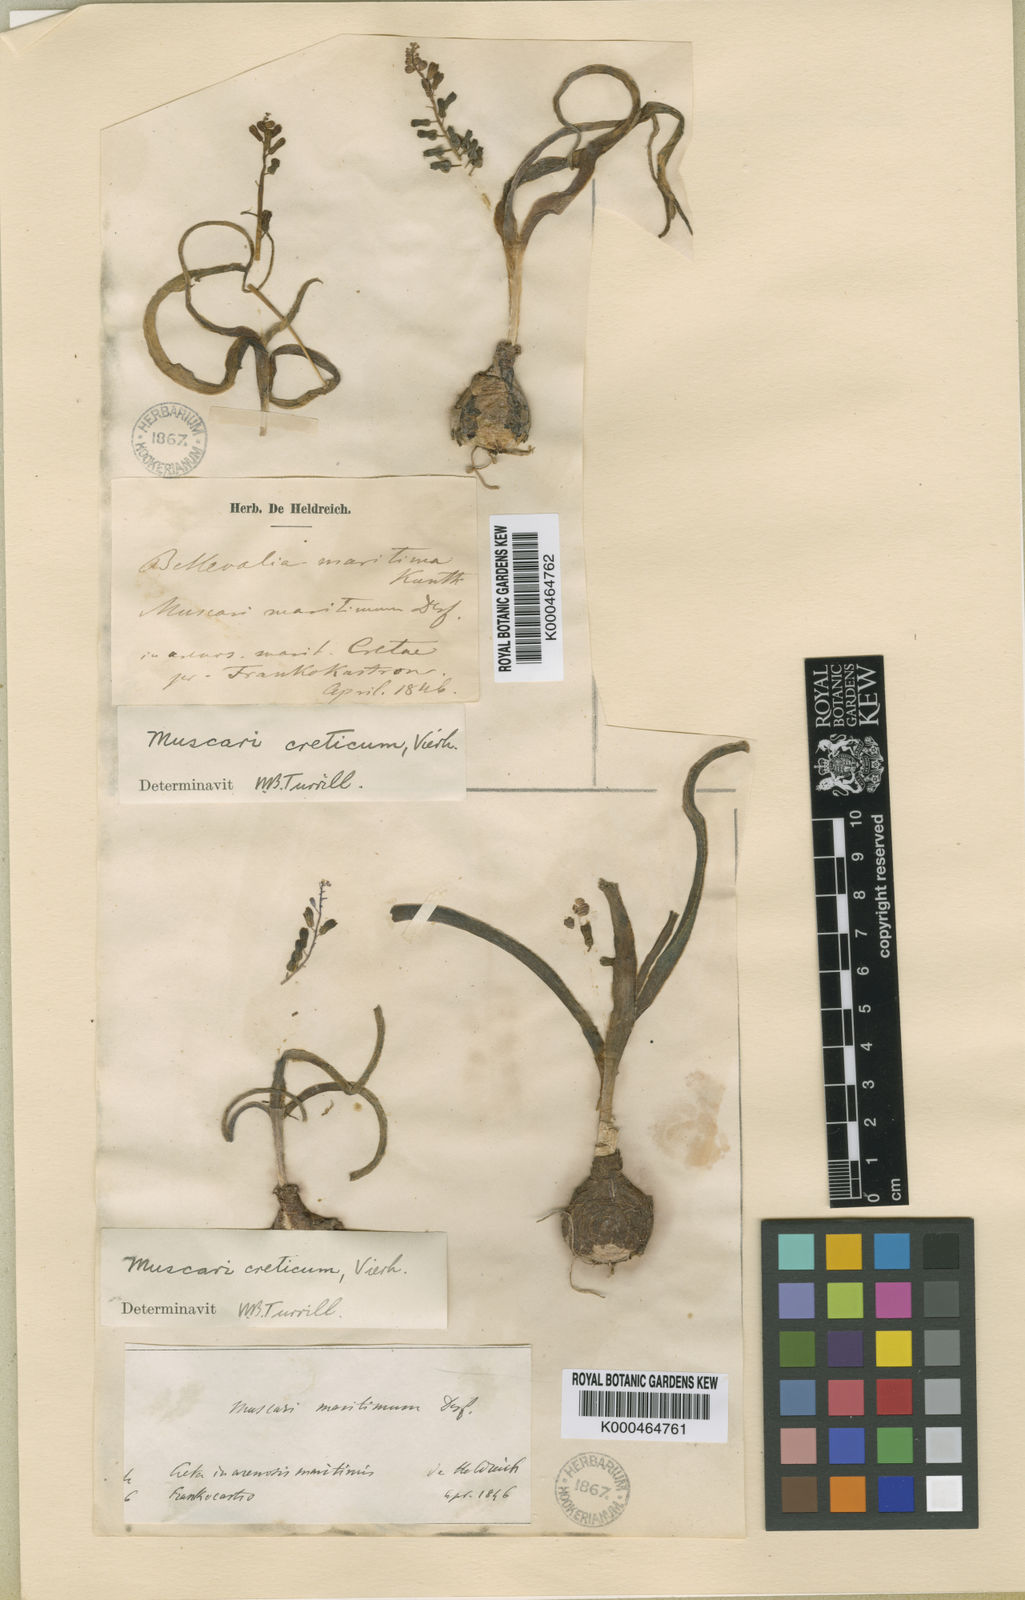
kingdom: Animalia
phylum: Mollusca
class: Cephalopoda
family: Neocomitidae
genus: Leopoldia
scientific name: Leopoldia
